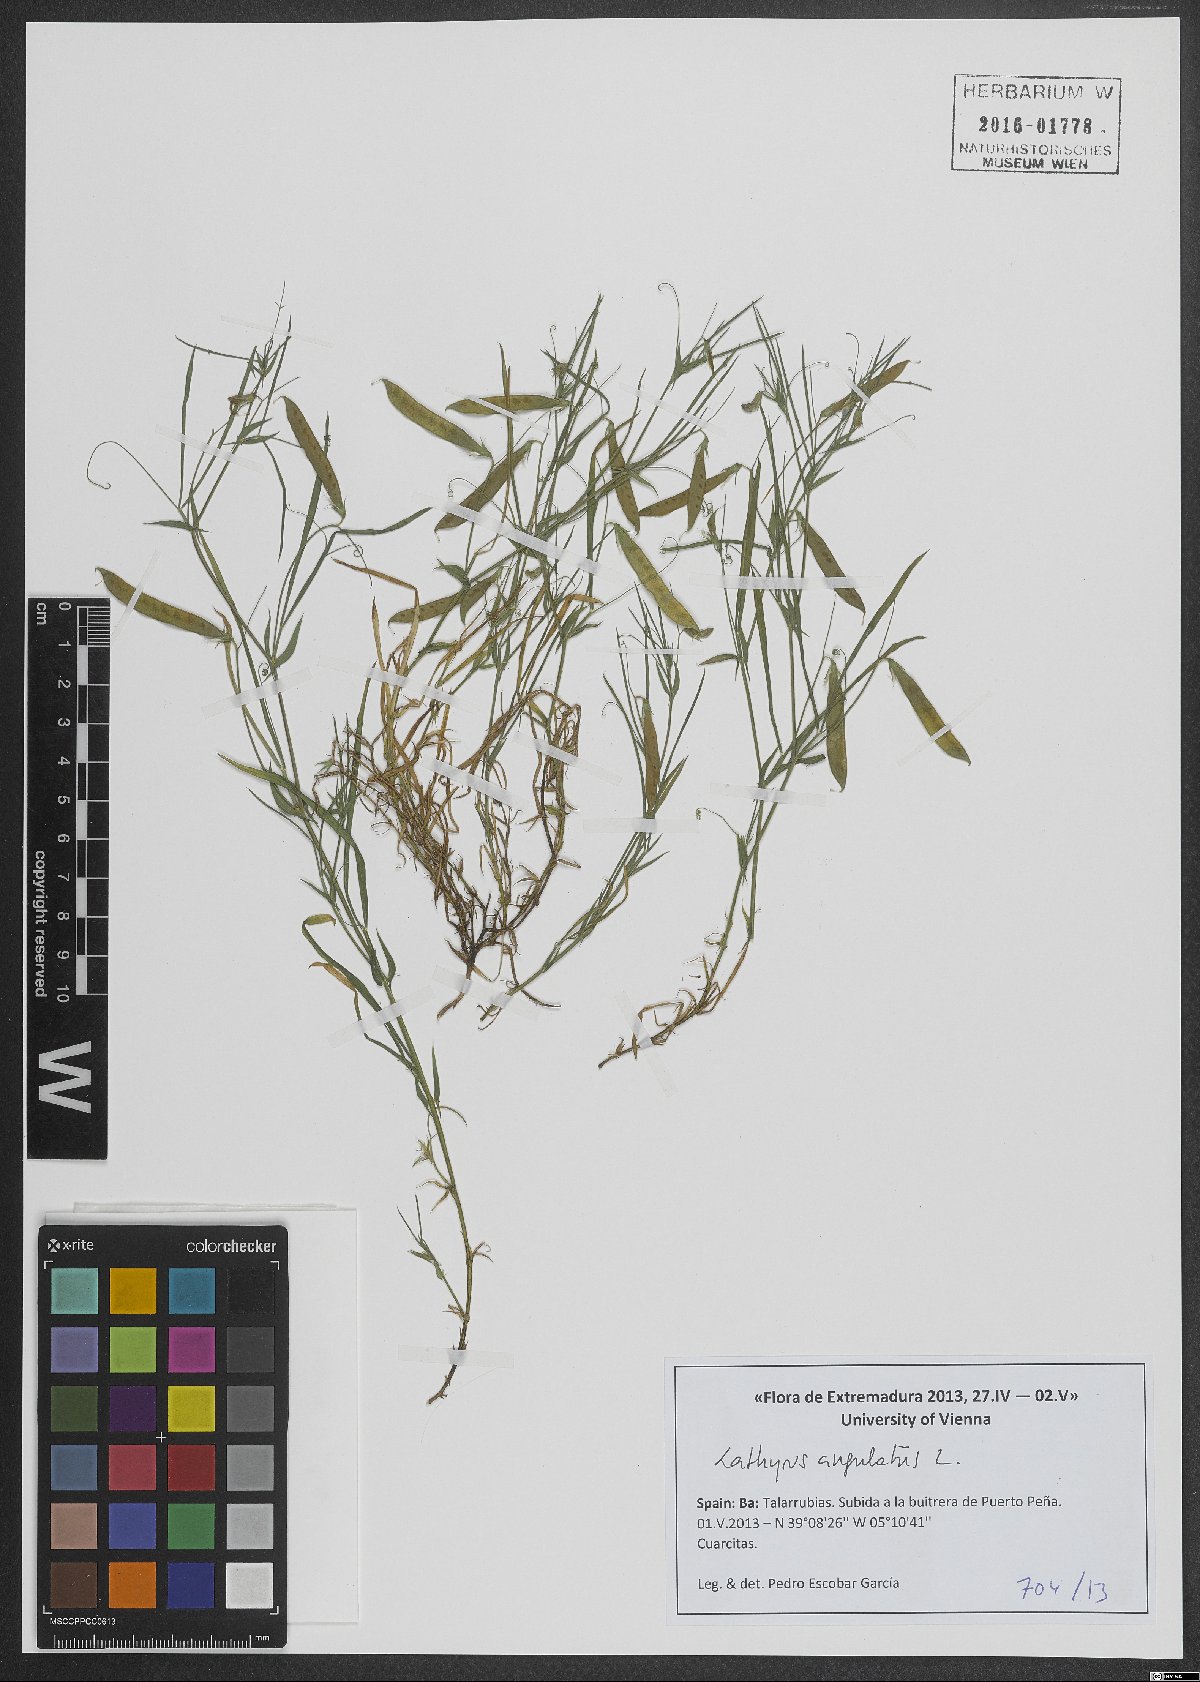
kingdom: Plantae
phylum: Tracheophyta
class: Magnoliopsida
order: Fabales
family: Fabaceae
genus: Lathyrus
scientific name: Lathyrus angulatus
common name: Angular pea
